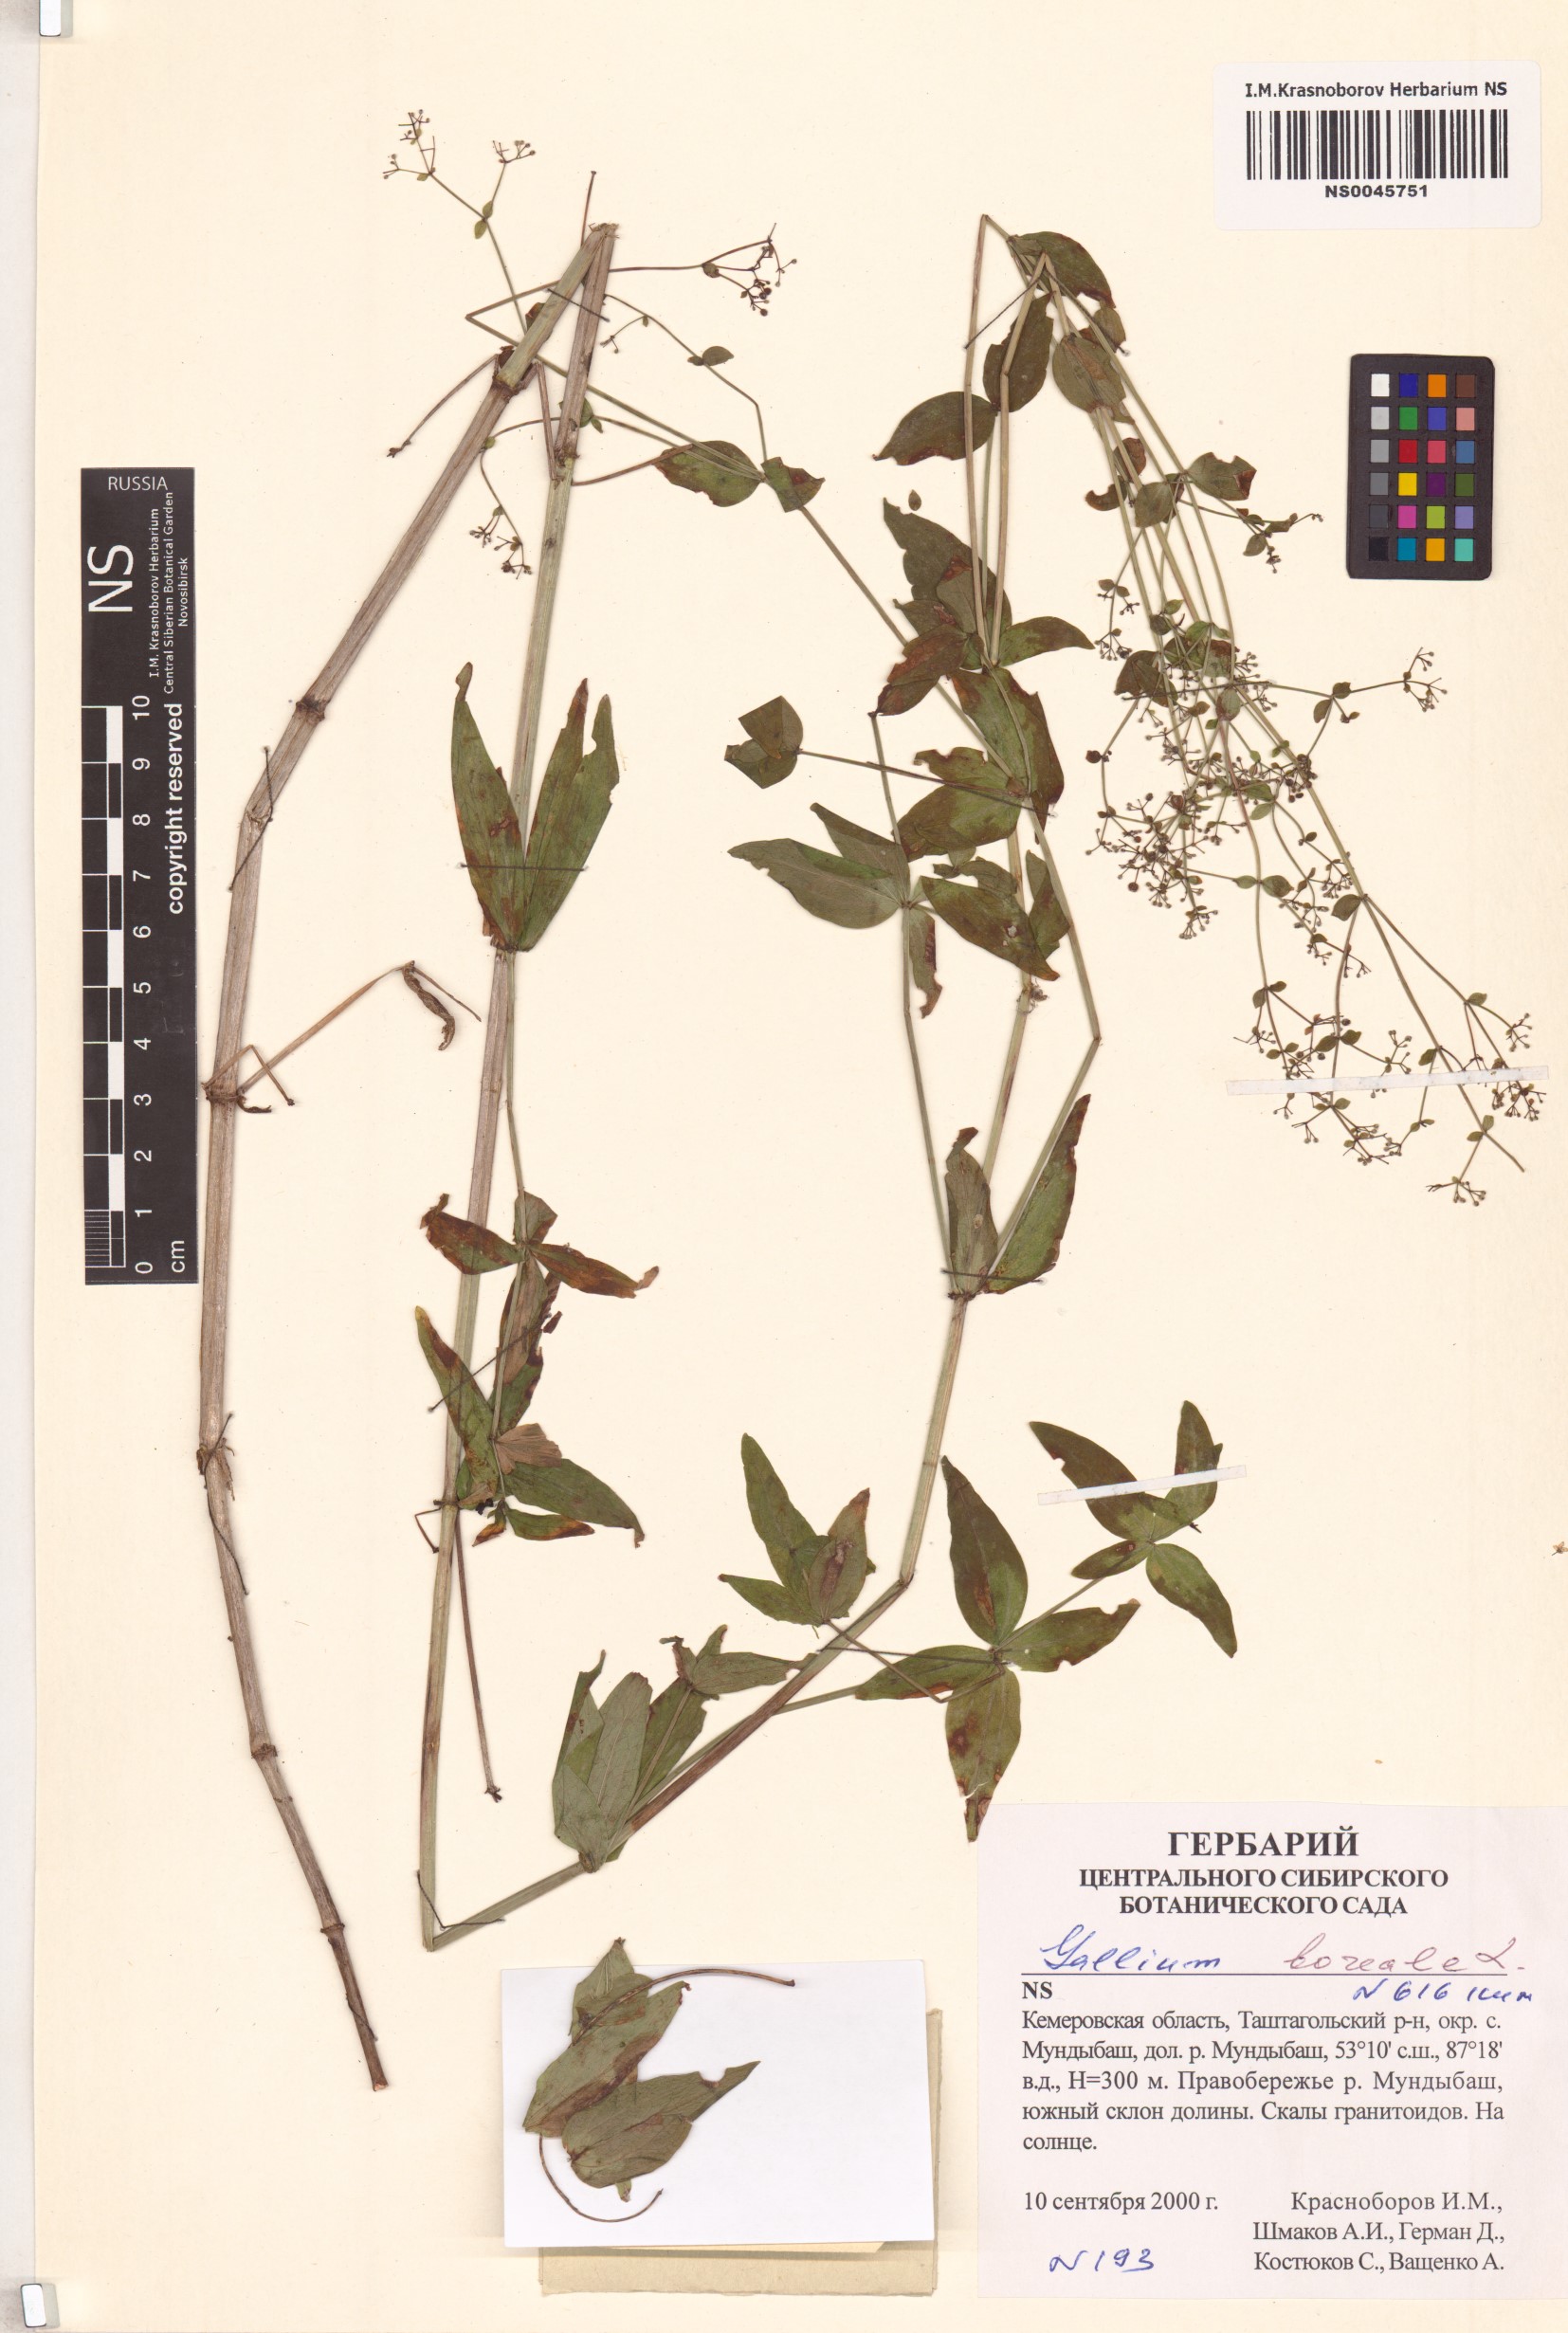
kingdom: Plantae
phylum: Tracheophyta
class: Magnoliopsida
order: Gentianales
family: Rubiaceae
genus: Galium
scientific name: Galium boreale
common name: Northern bedstraw
